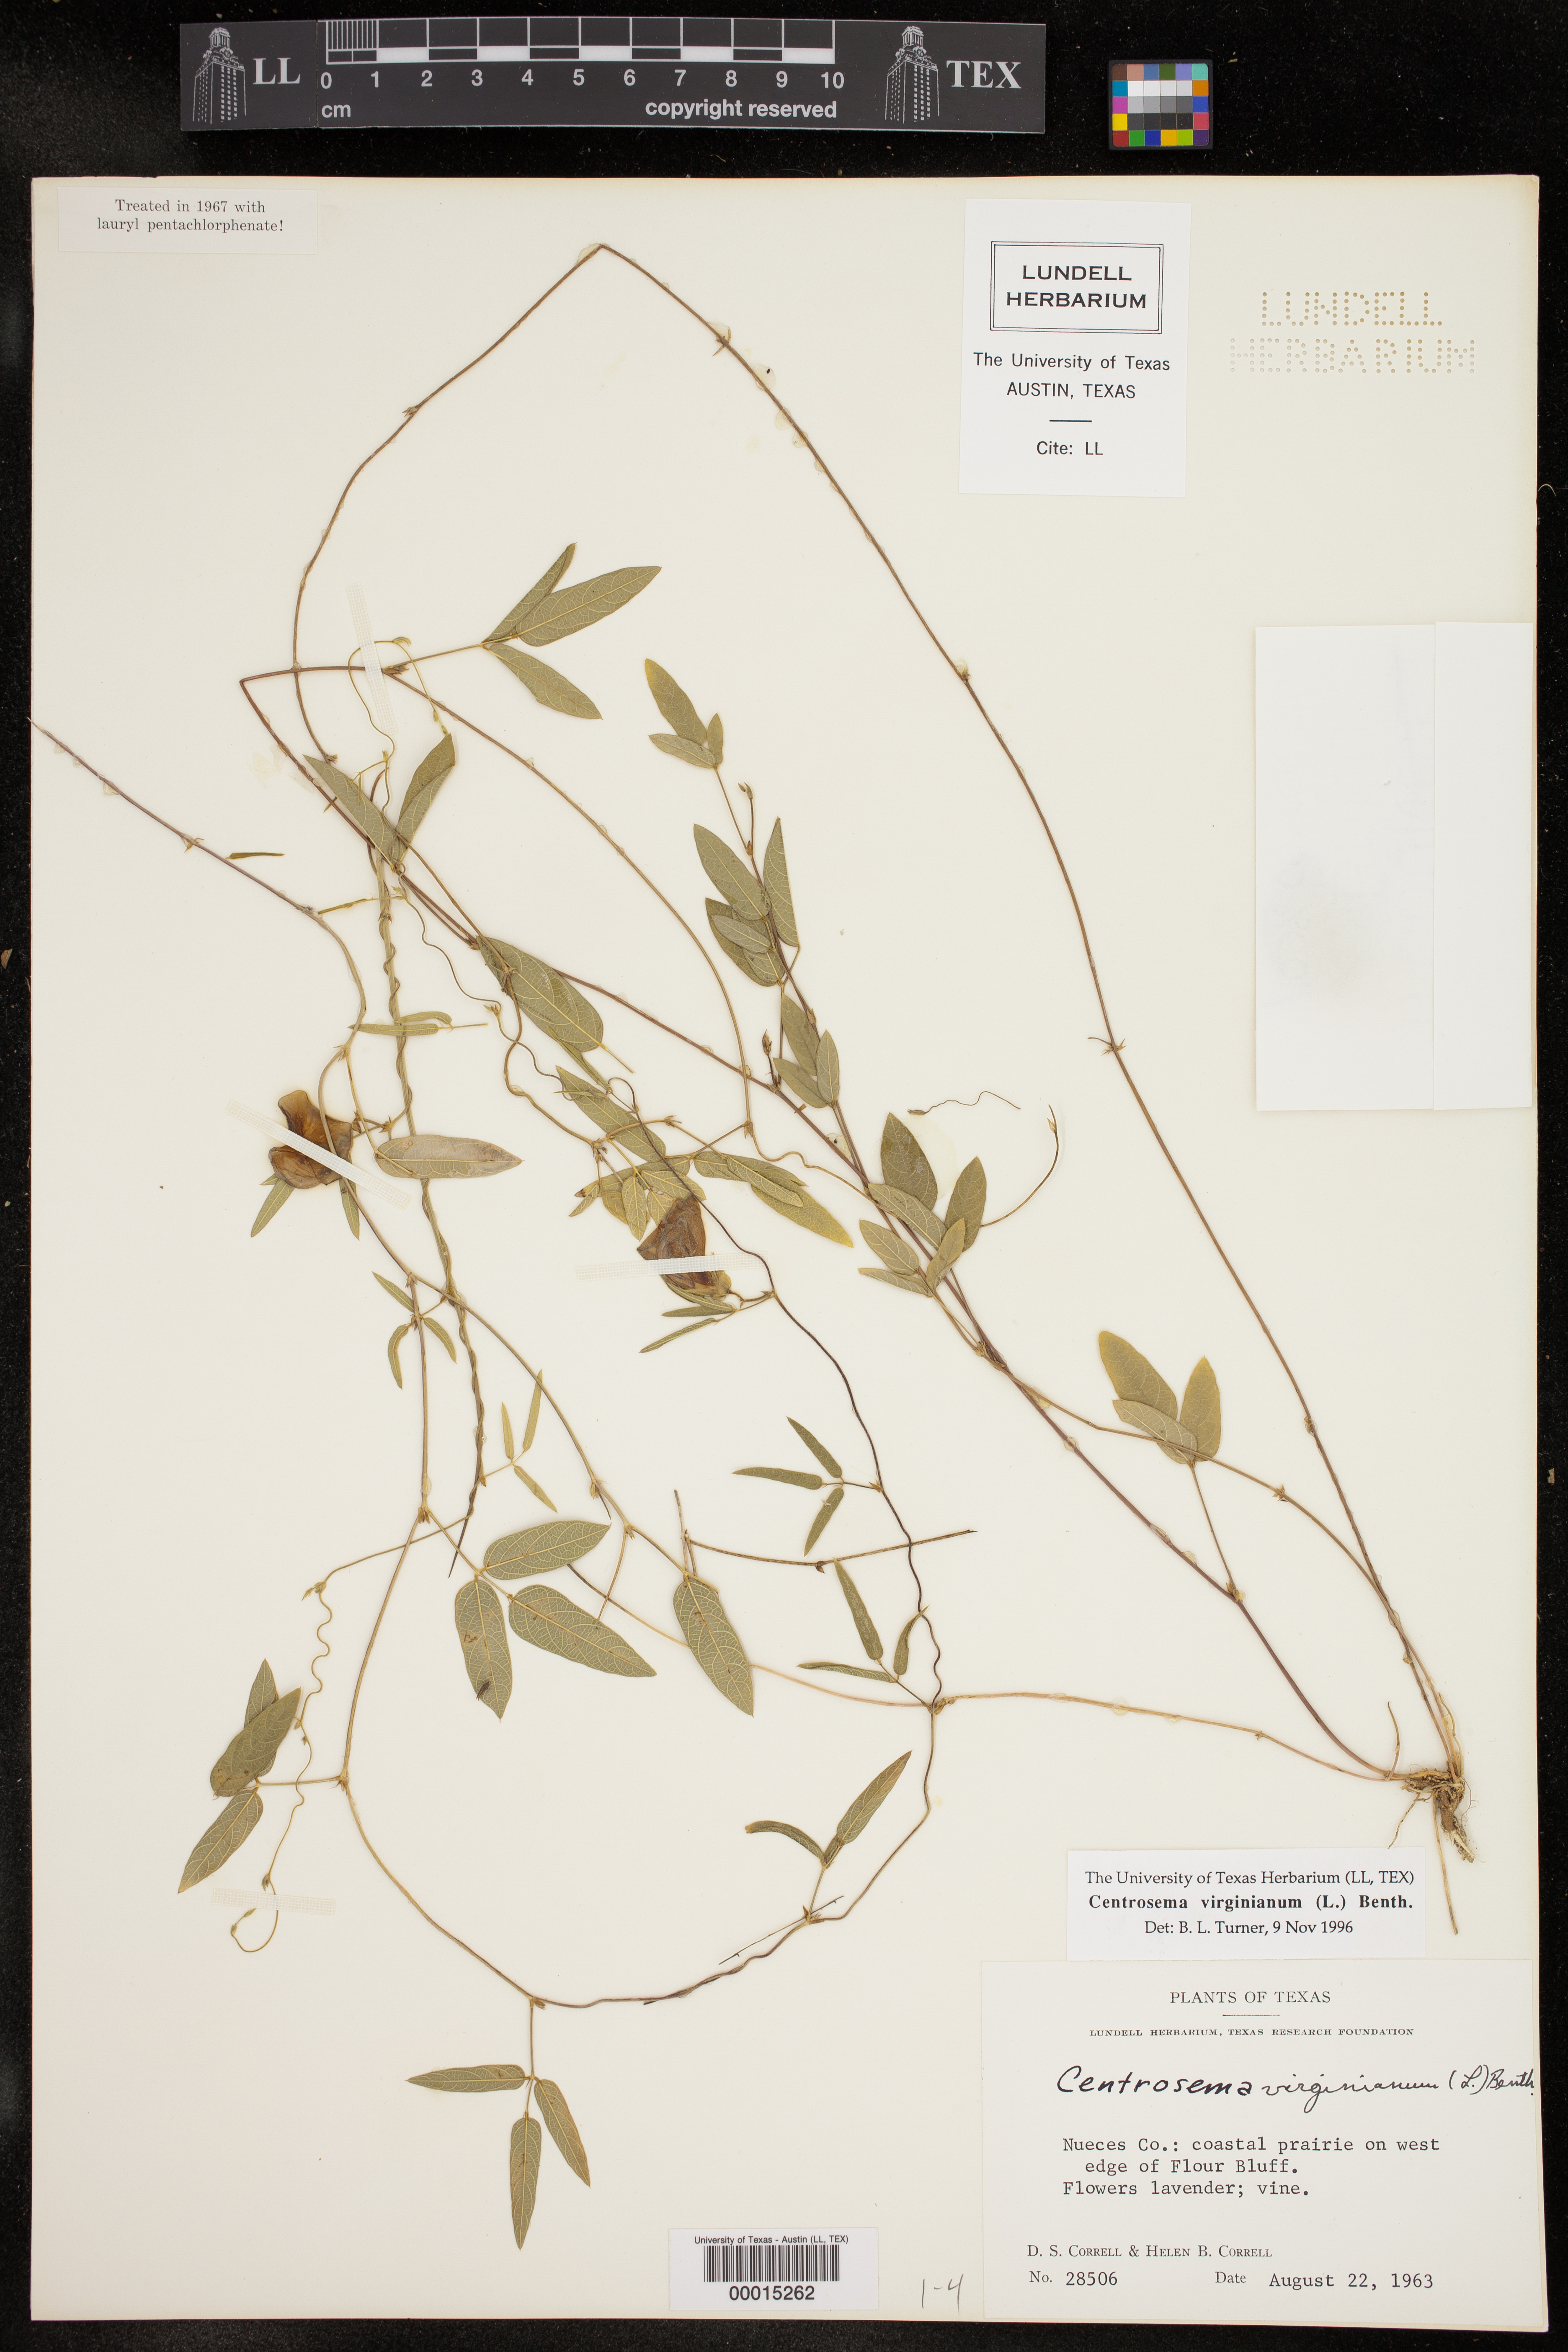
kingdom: Plantae
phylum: Tracheophyta
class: Magnoliopsida
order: Fabales
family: Fabaceae
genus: Centrosema
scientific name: Centrosema virginianum
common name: Butterfly-pea
